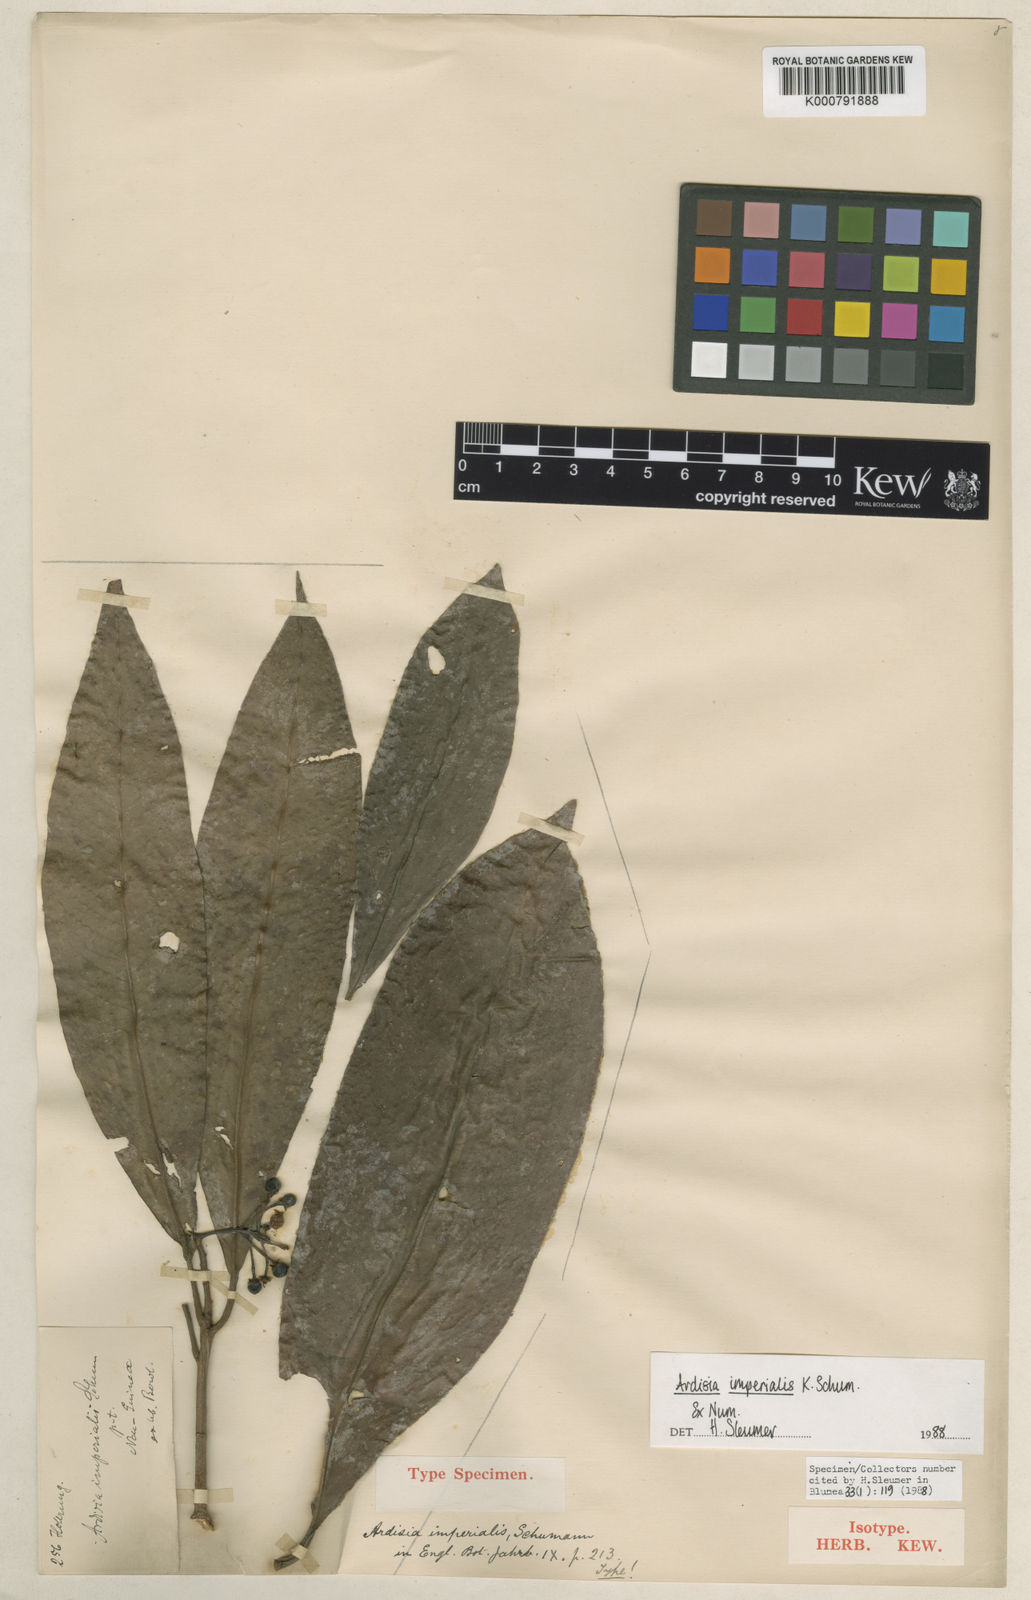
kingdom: Plantae
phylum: Tracheophyta
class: Magnoliopsida
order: Ericales
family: Primulaceae
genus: Ardisia
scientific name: Ardisia imperialis
